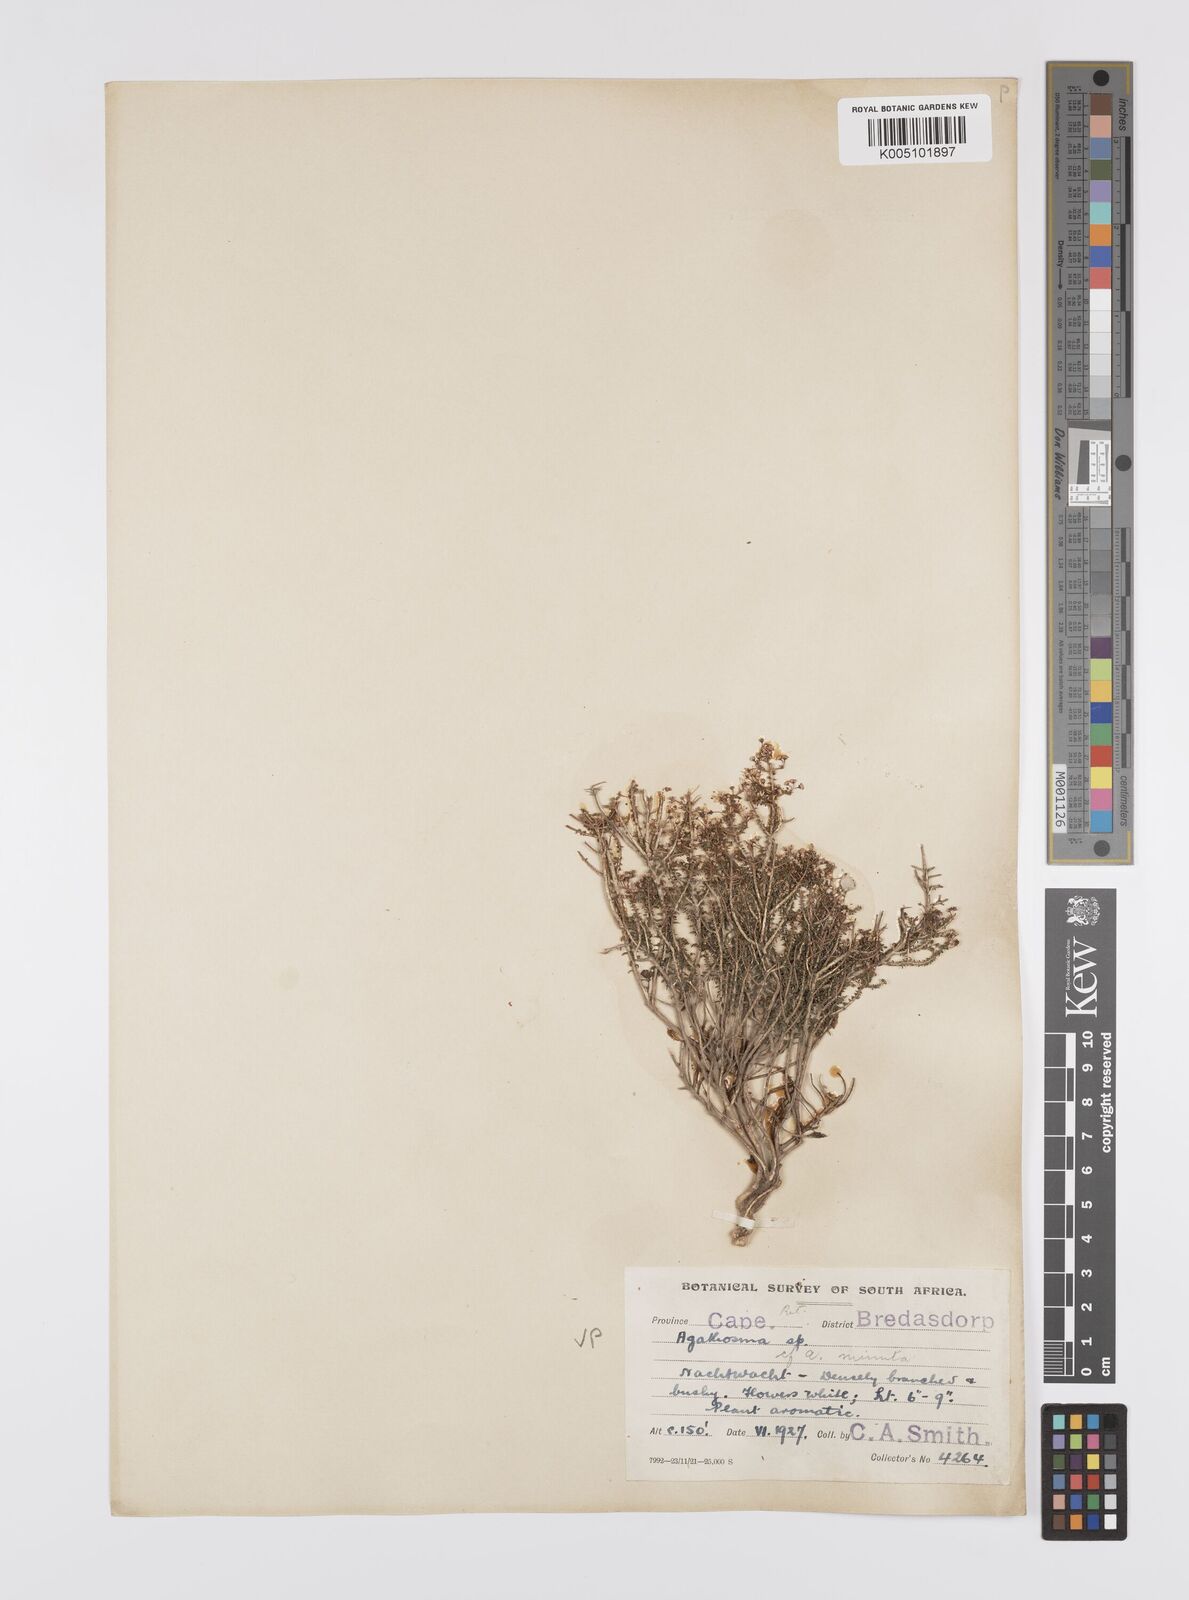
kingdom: Plantae
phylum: Tracheophyta
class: Magnoliopsida
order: Sapindales
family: Rutaceae
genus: Agathosma
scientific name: Agathosma minuta
